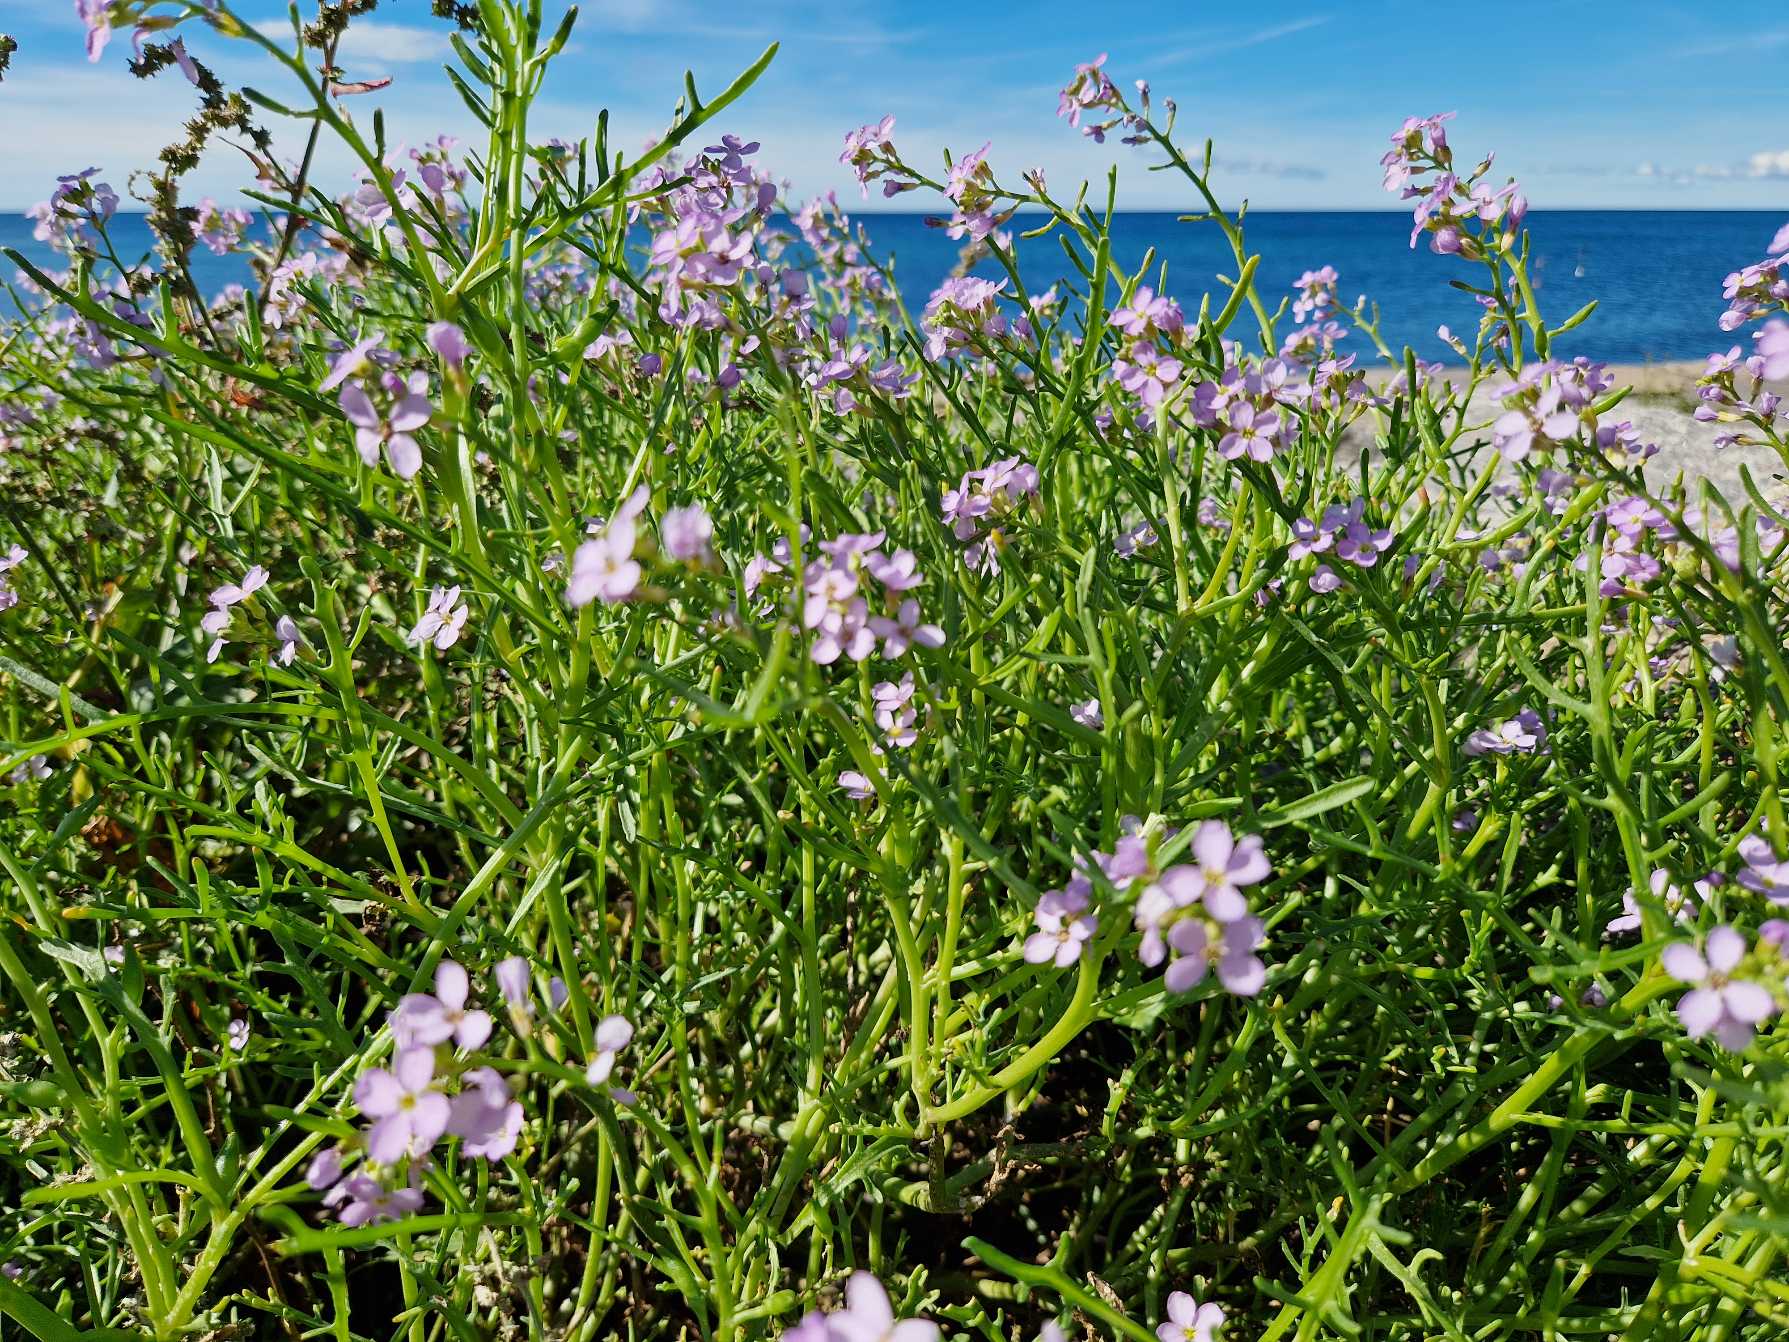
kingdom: Plantae
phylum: Tracheophyta
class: Magnoliopsida
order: Brassicales
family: Brassicaceae
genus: Cakile
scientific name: Cakile maritima
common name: Strandsennep
